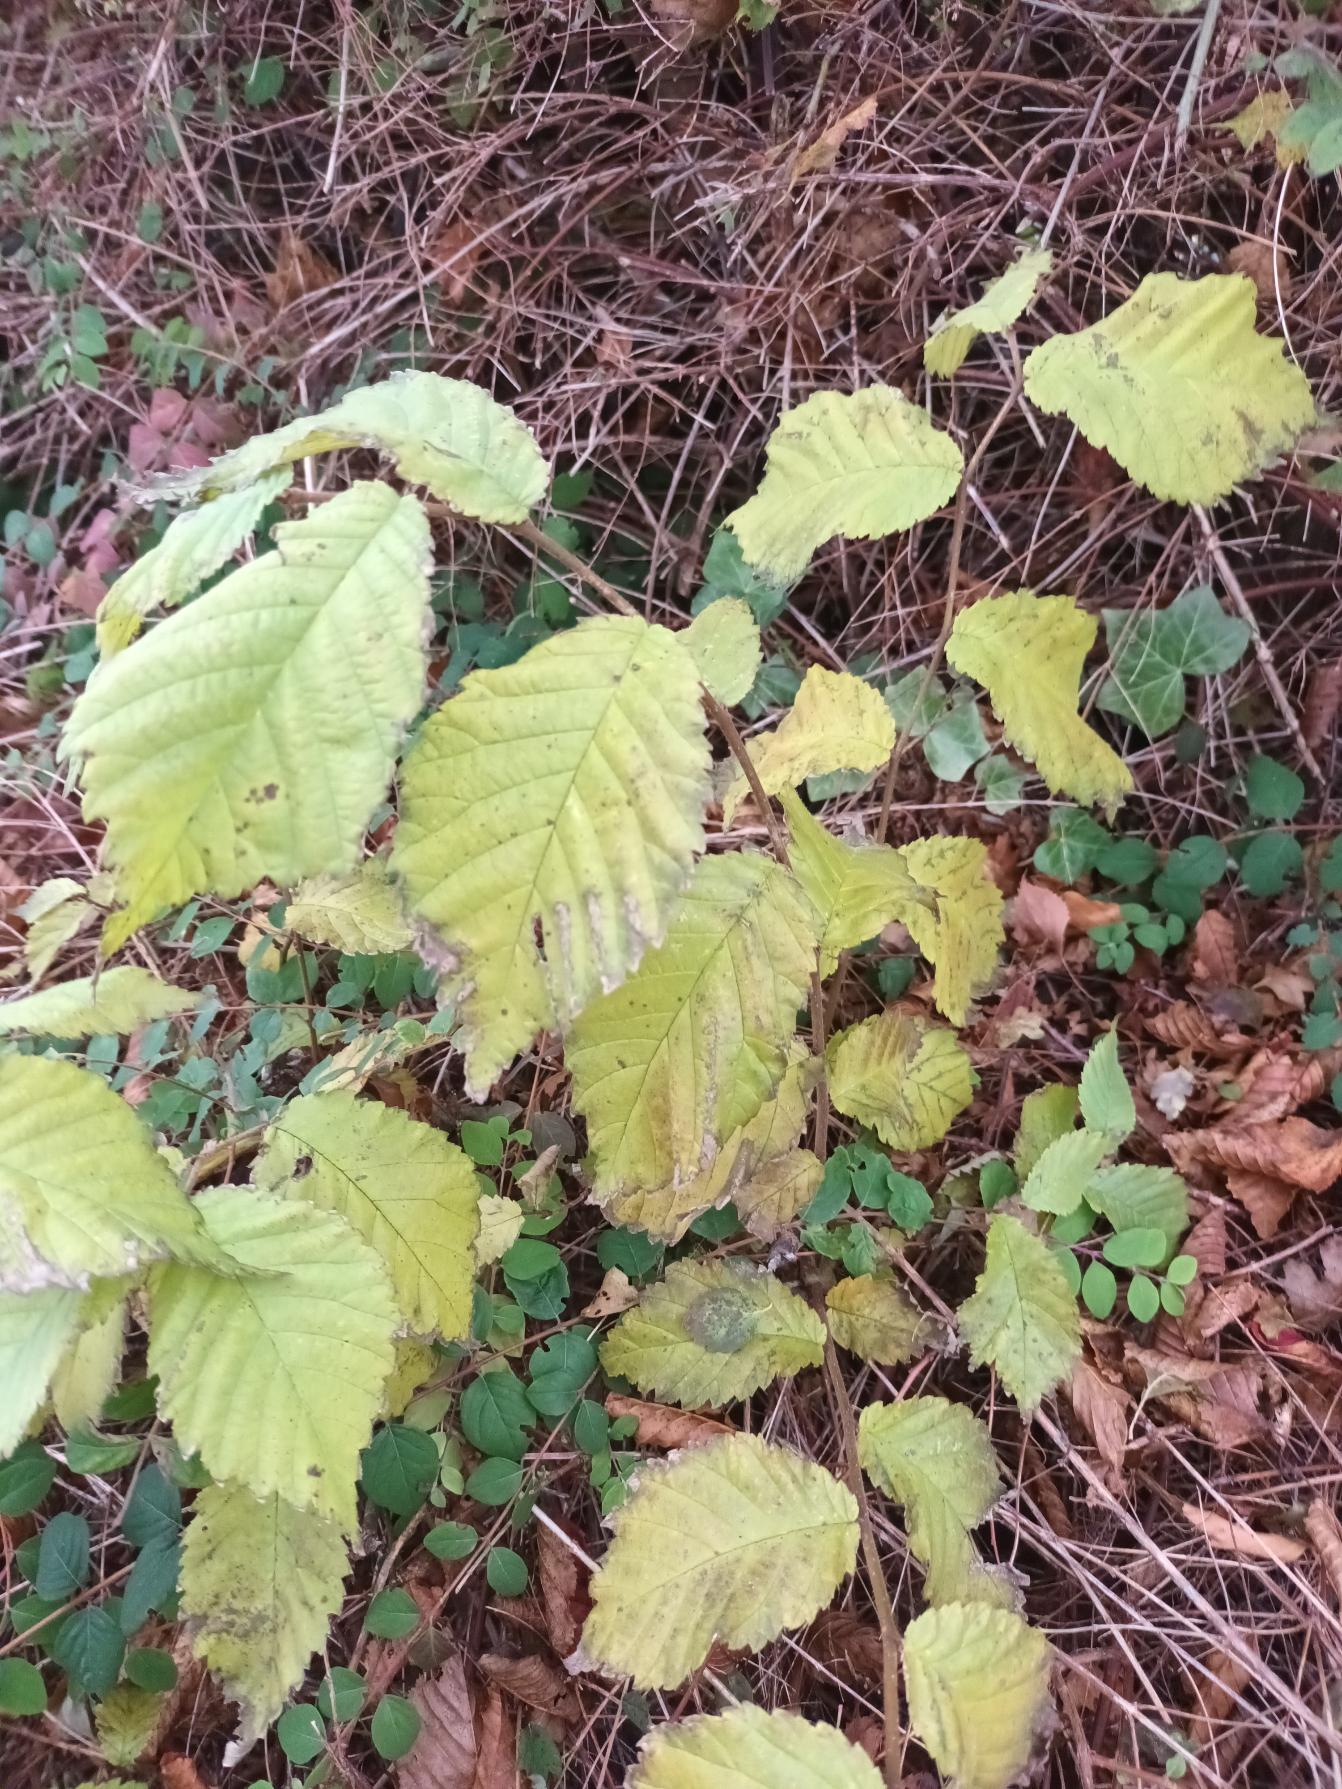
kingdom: Plantae
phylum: Tracheophyta
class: Magnoliopsida
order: Rosales
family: Ulmaceae
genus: Ulmus
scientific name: Ulmus glabra
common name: Skov-elm/storbladet elm
